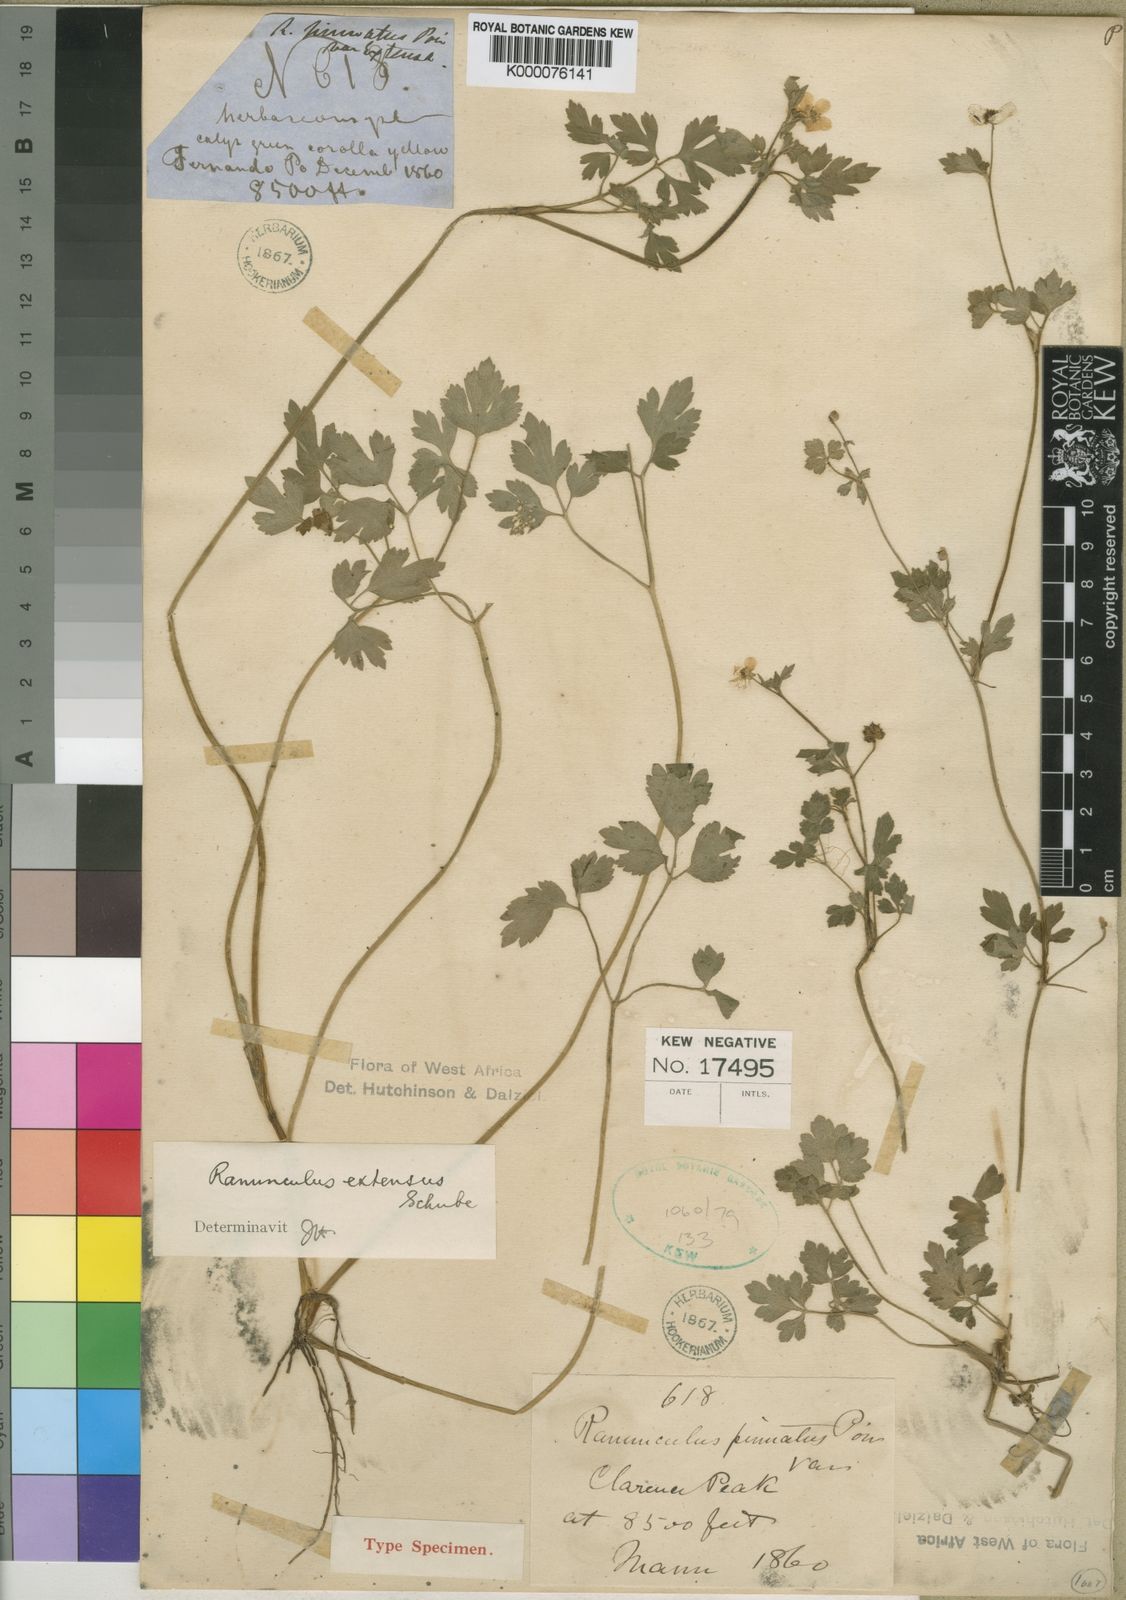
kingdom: Plantae
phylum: Tracheophyta
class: Magnoliopsida
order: Ranunculales
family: Ranunculaceae
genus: Ranunculus
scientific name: Ranunculus multifidus
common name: Wild buttercup
